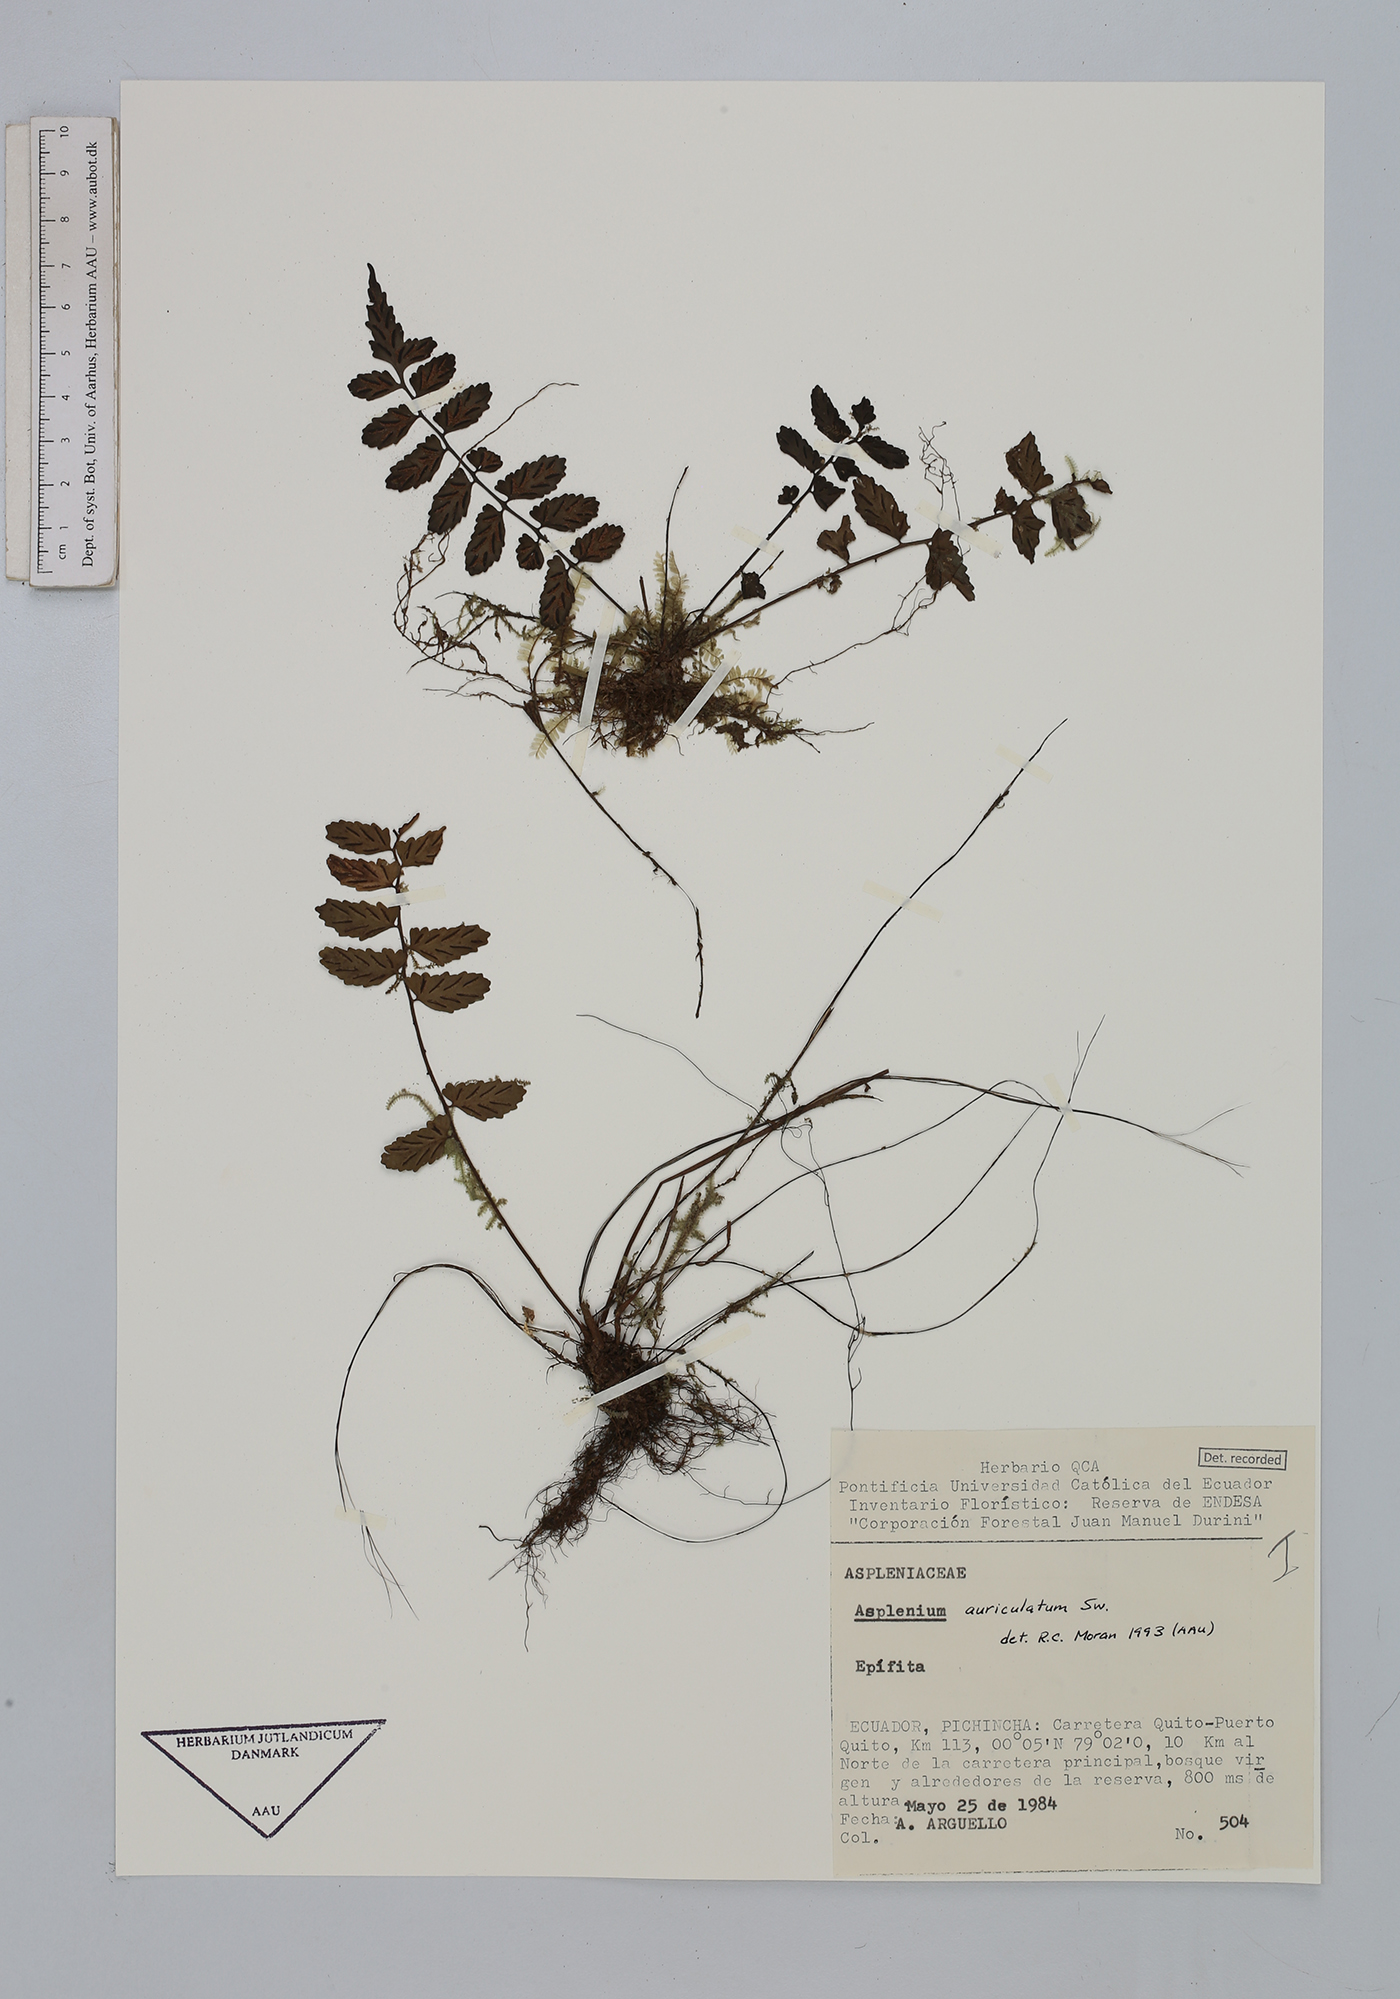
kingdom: Plantae
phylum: Tracheophyta
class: Polypodiopsida
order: Polypodiales
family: Aspleniaceae
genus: Asplenium
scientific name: Asplenium auriculatum
